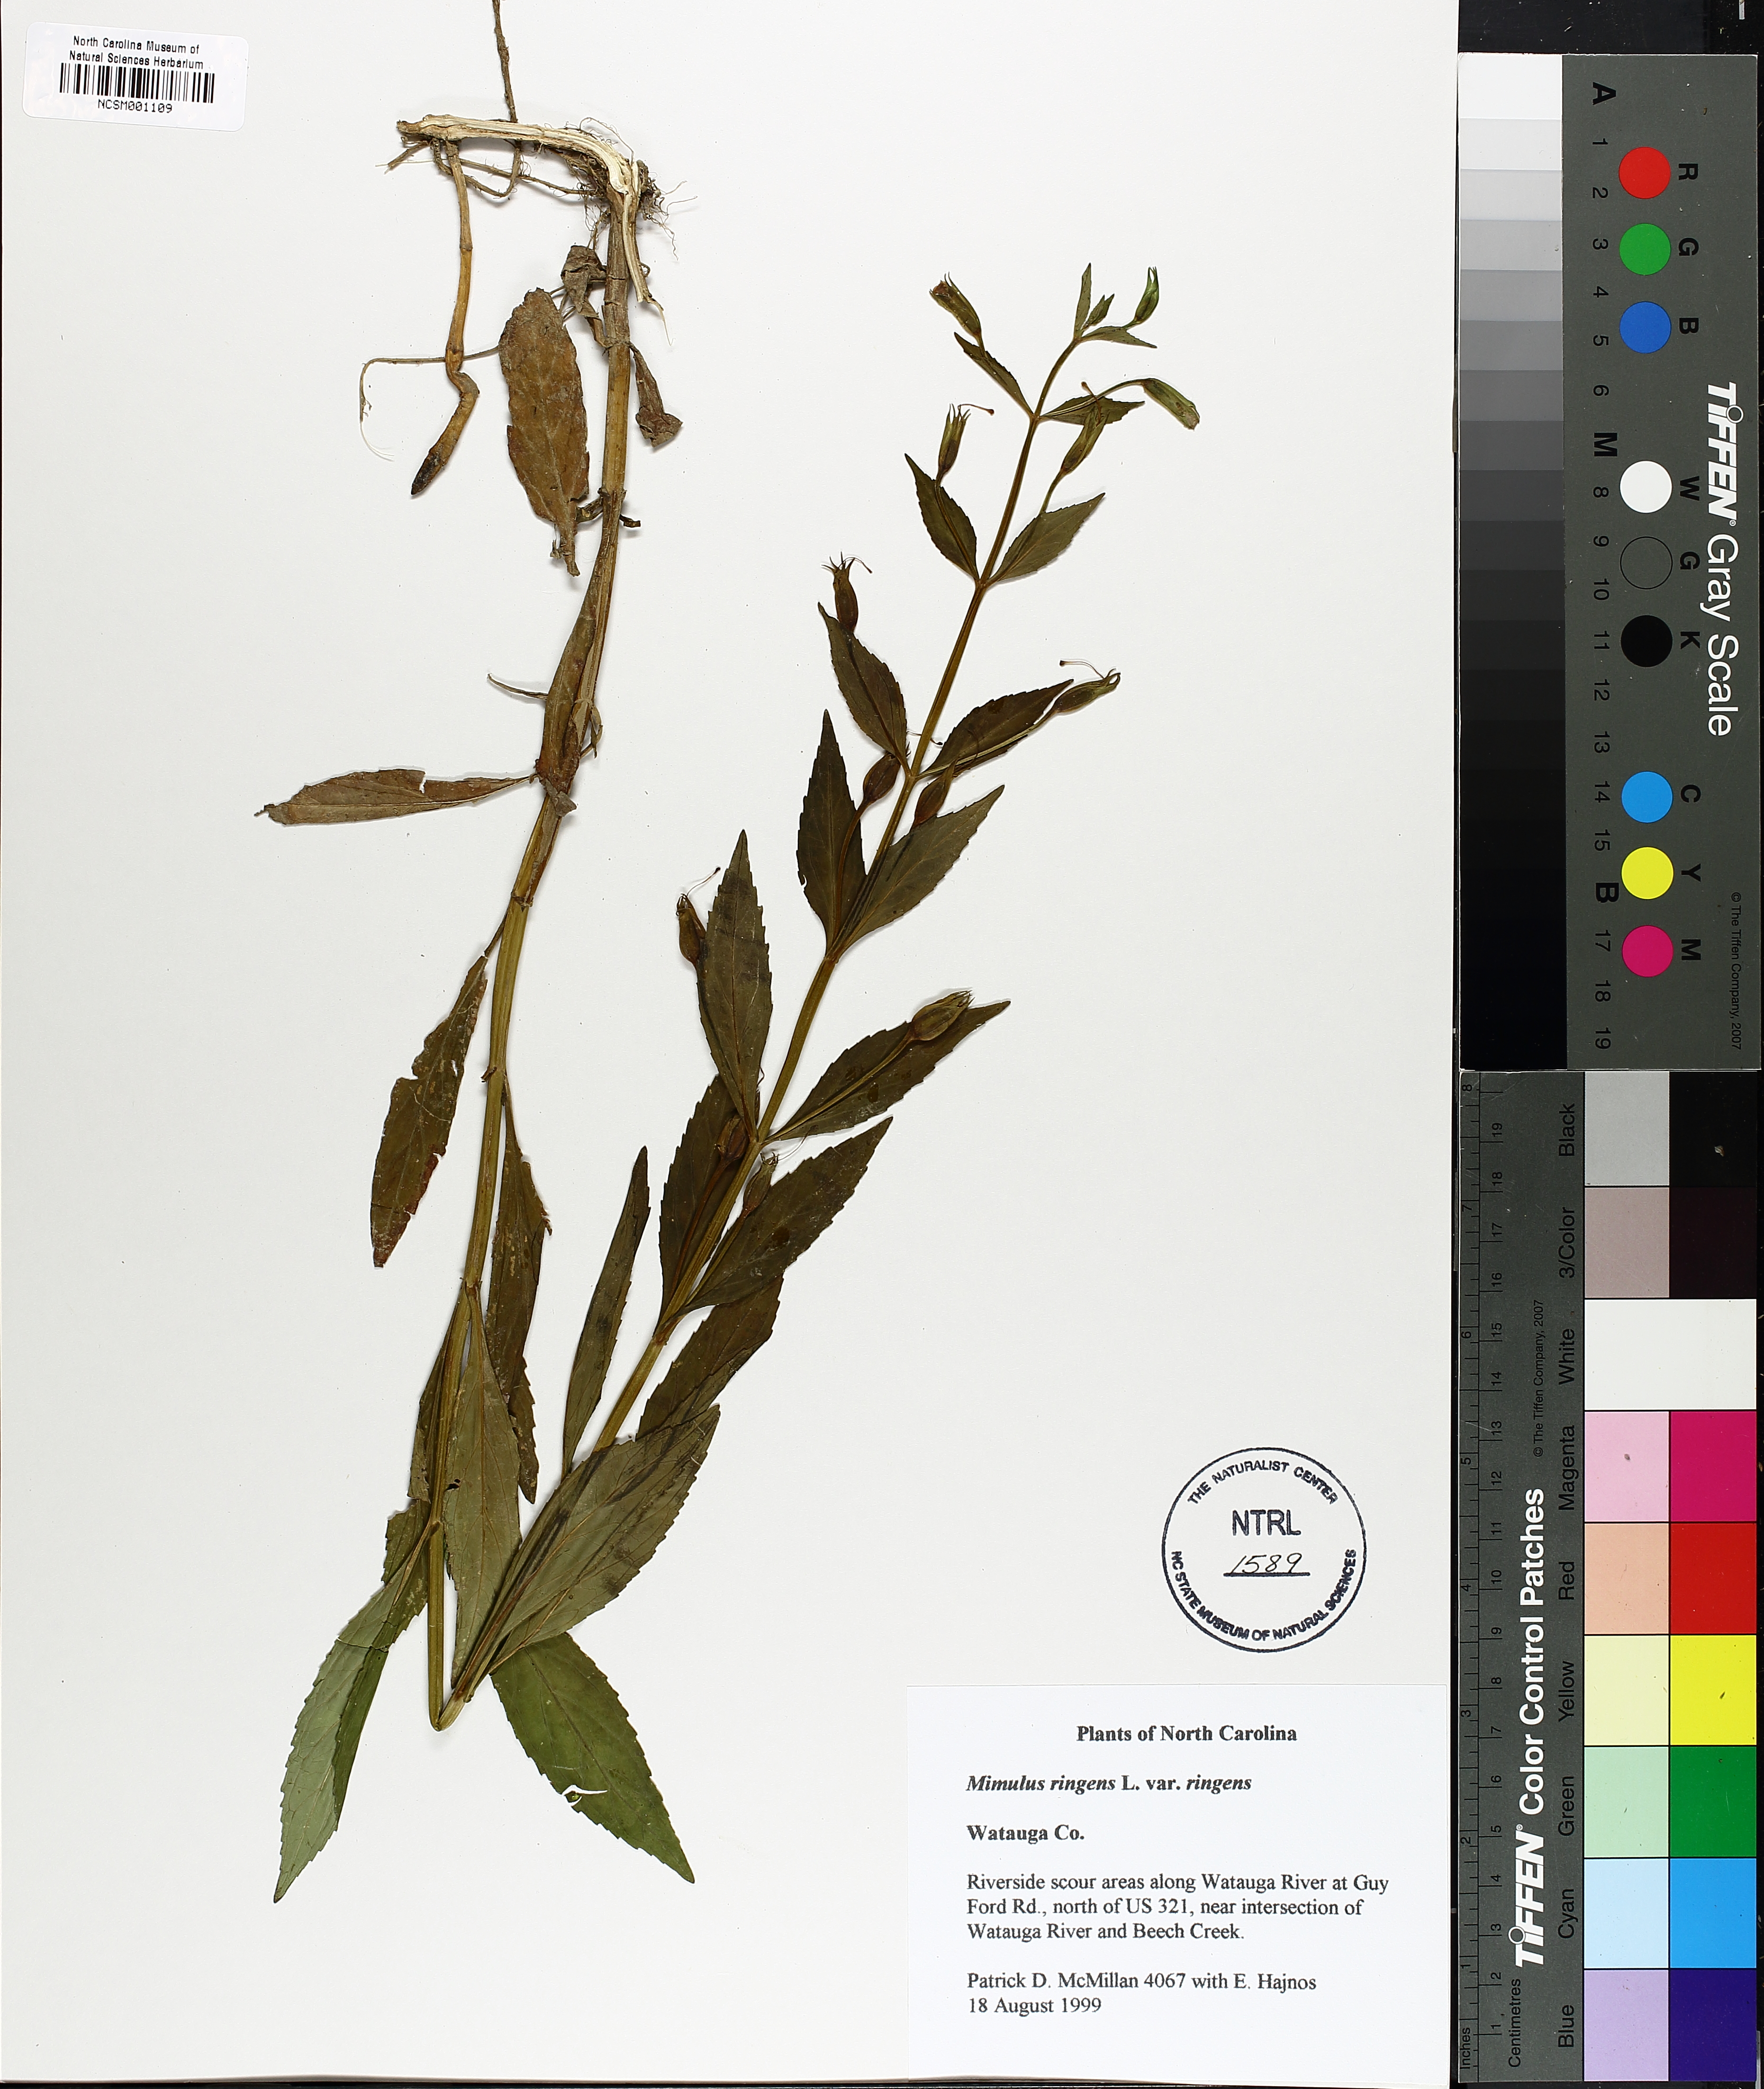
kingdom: Plantae
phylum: Tracheophyta
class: Magnoliopsida
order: Lamiales
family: Phrymaceae
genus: Mimulus
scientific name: Mimulus ringens
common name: Allegheny monkeyflower
